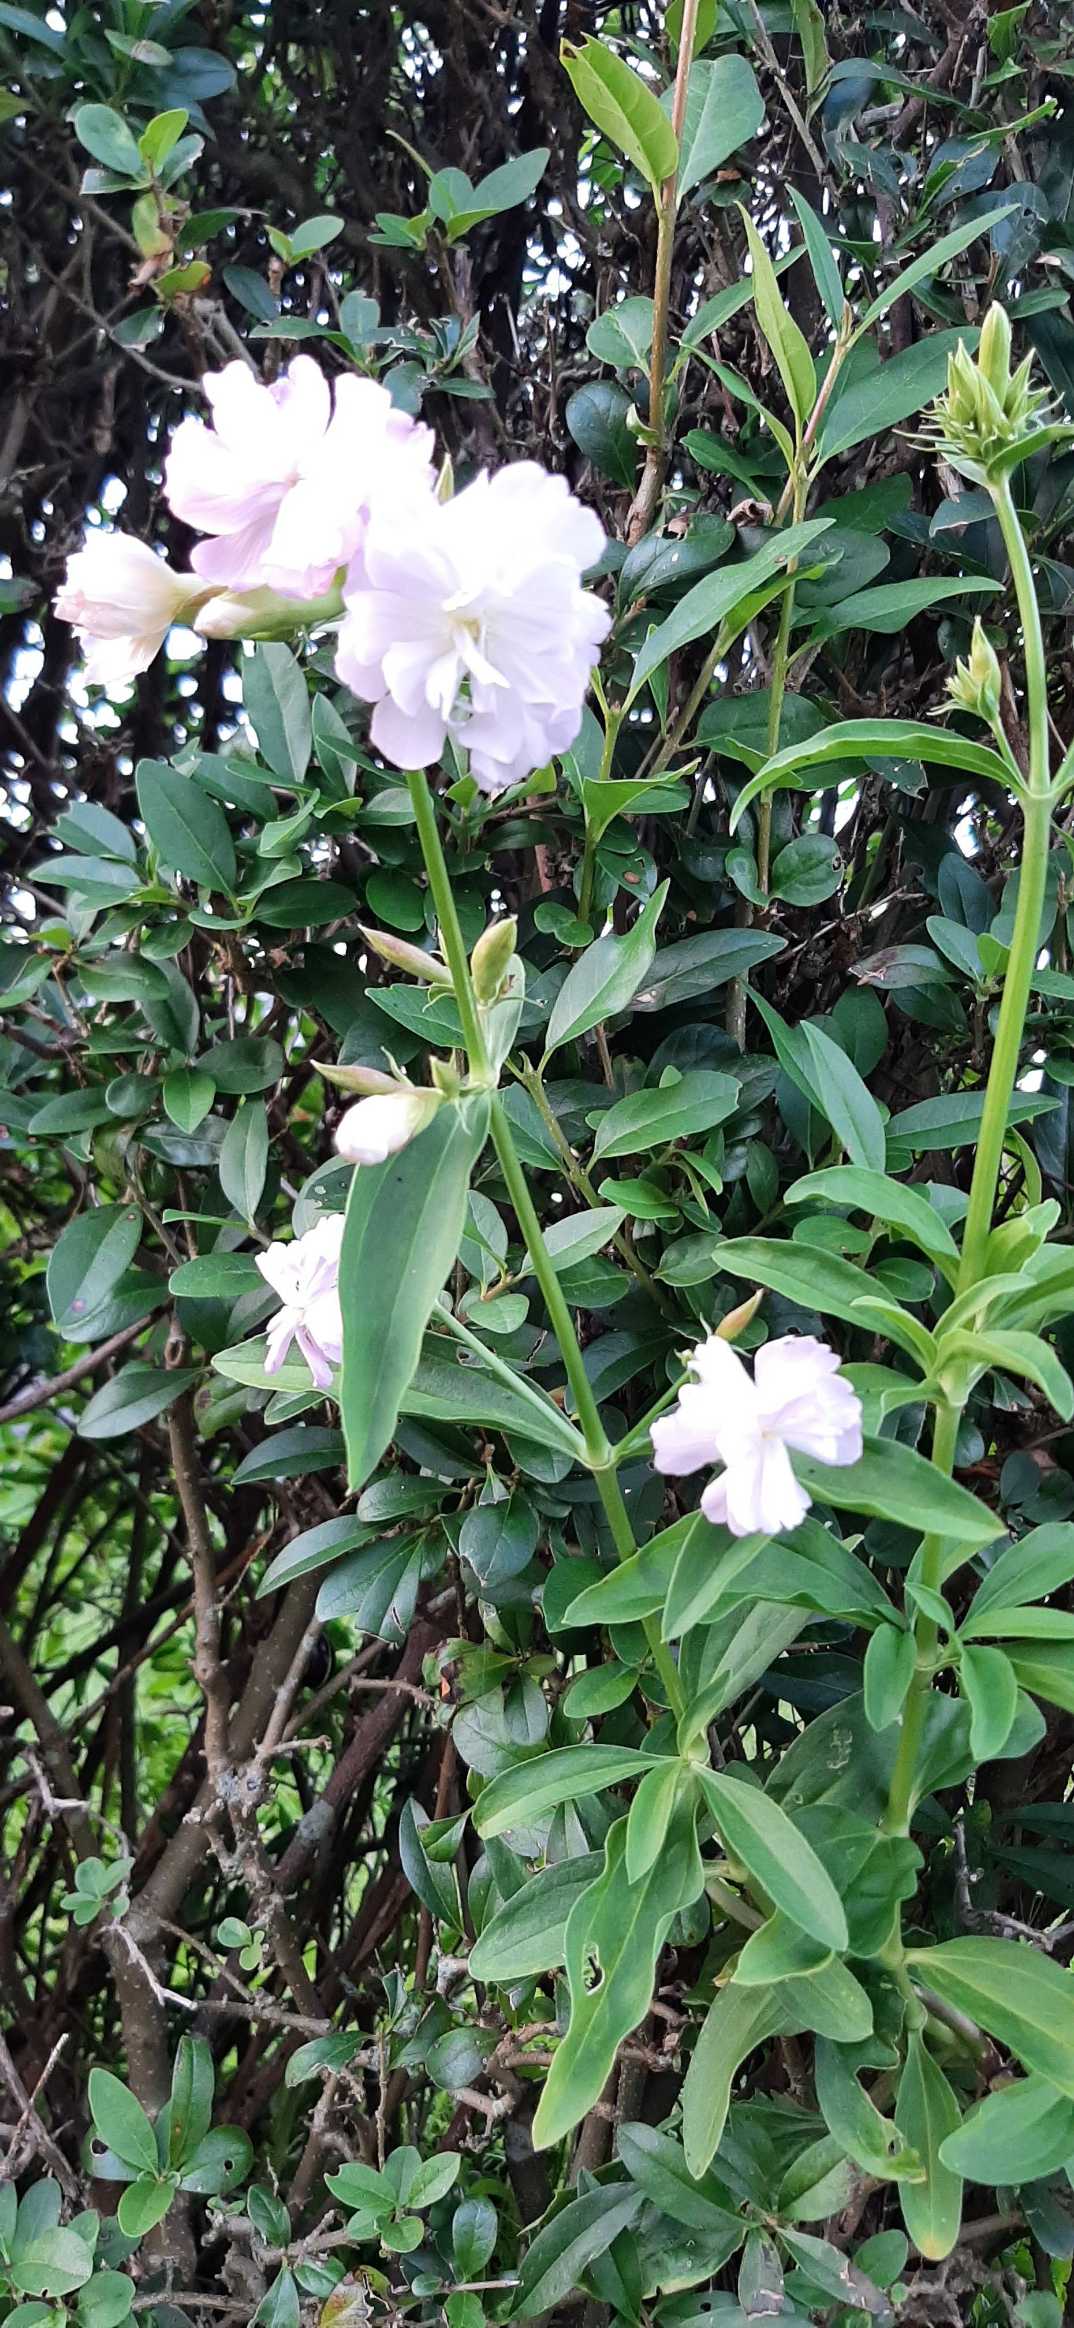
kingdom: Plantae
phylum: Tracheophyta
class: Magnoliopsida
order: Caryophyllales
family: Caryophyllaceae
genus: Saponaria
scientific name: Saponaria officinalis
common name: Sæbeurt
